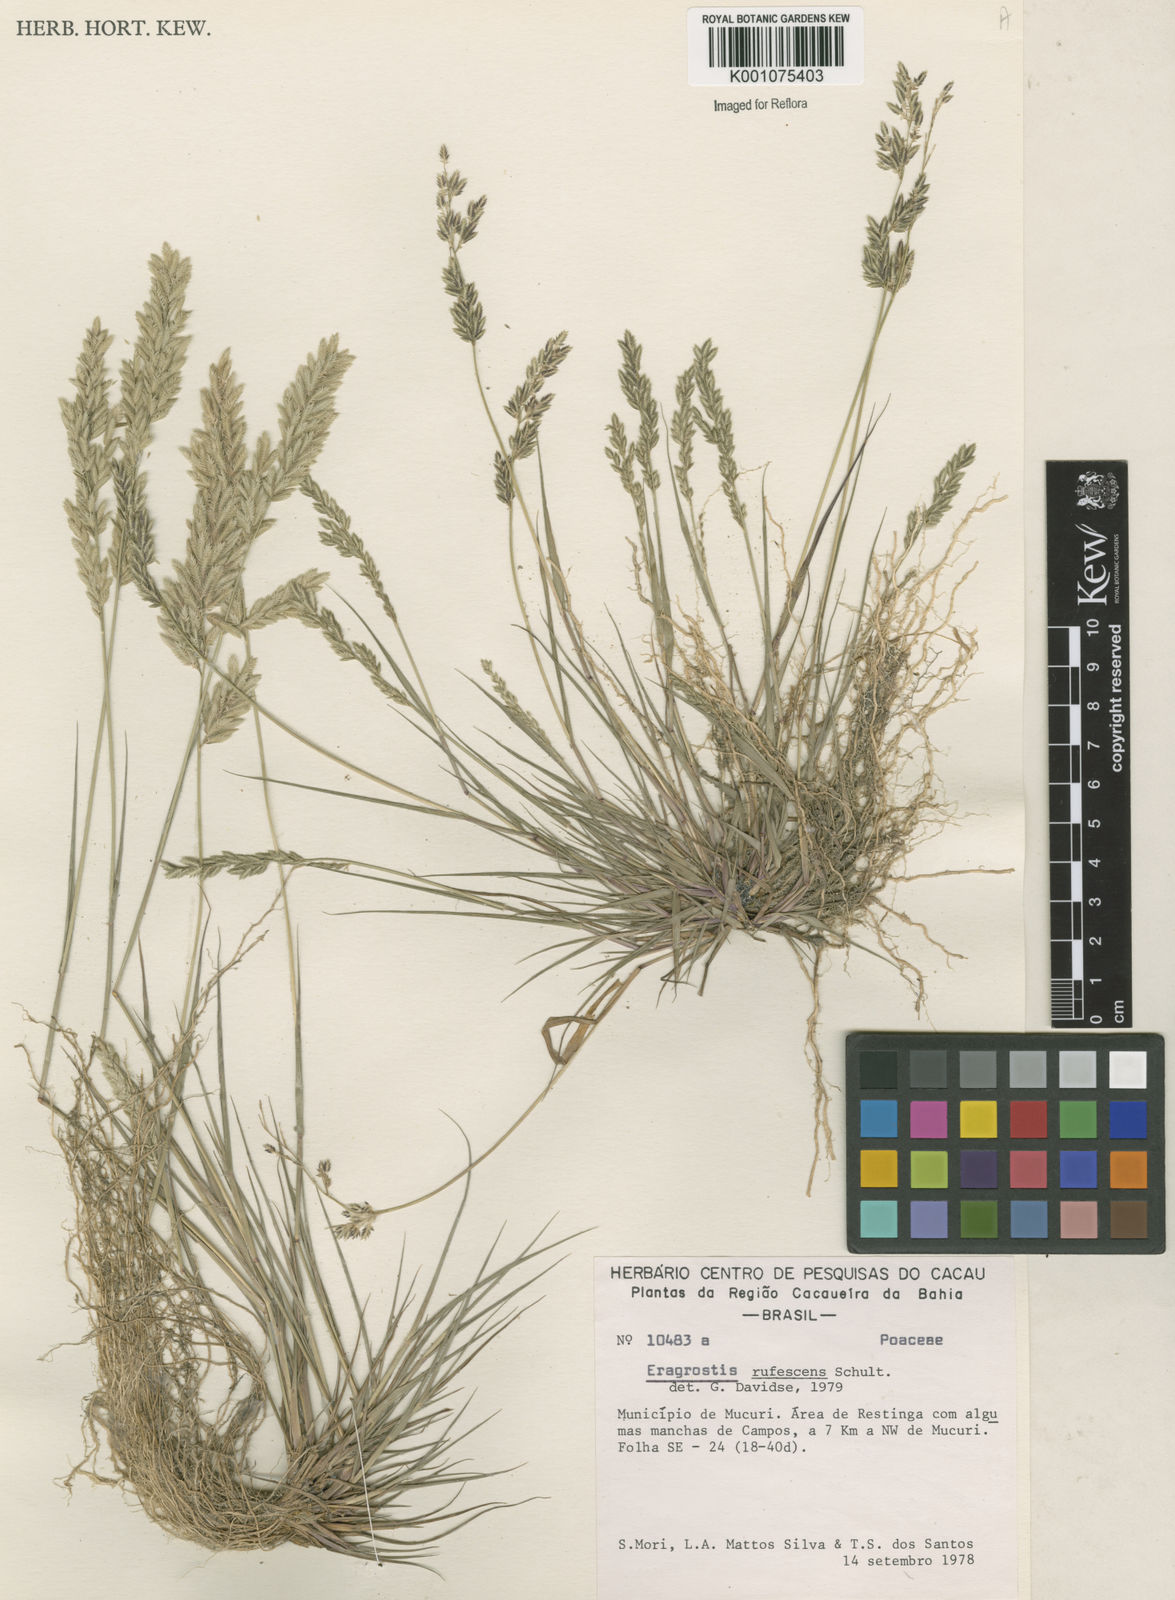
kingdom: Plantae
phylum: Tracheophyta
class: Liliopsida
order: Poales
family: Poaceae
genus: Eragrostis
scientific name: Eragrostis rufescens
